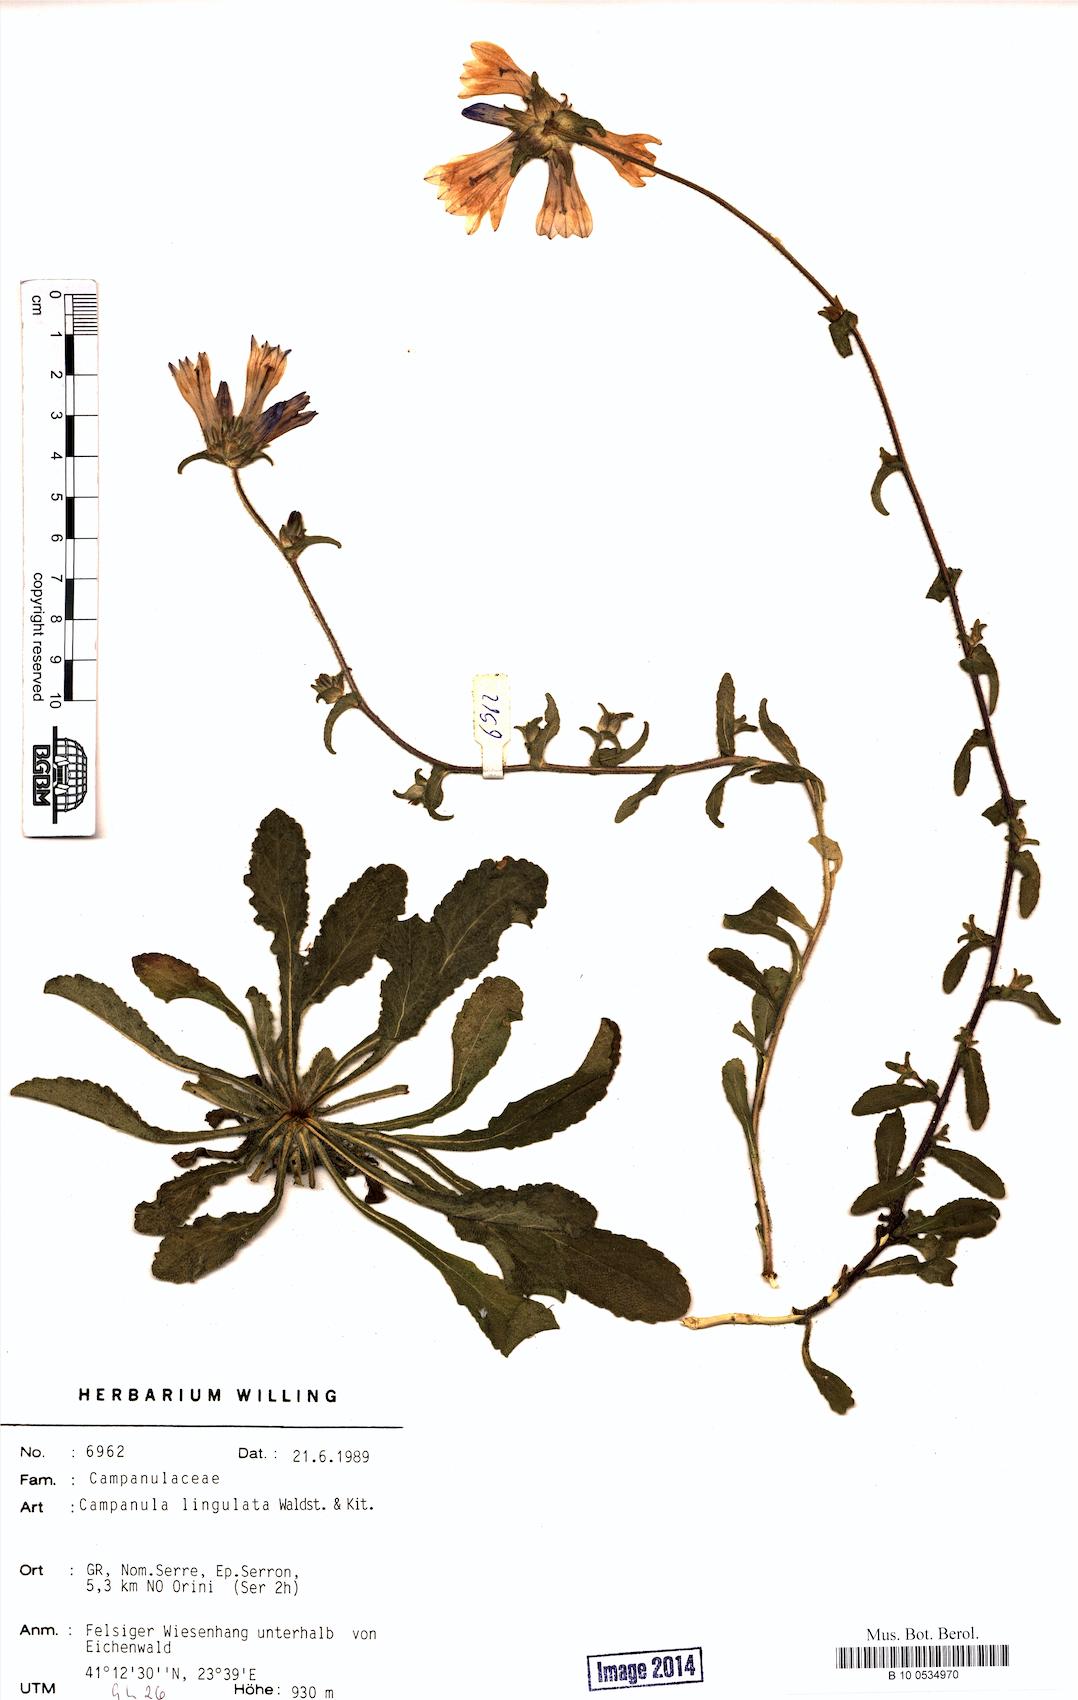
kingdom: Plantae
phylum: Tracheophyta
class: Magnoliopsida
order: Asterales
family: Campanulaceae
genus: Campanula
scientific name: Campanula lingulata
